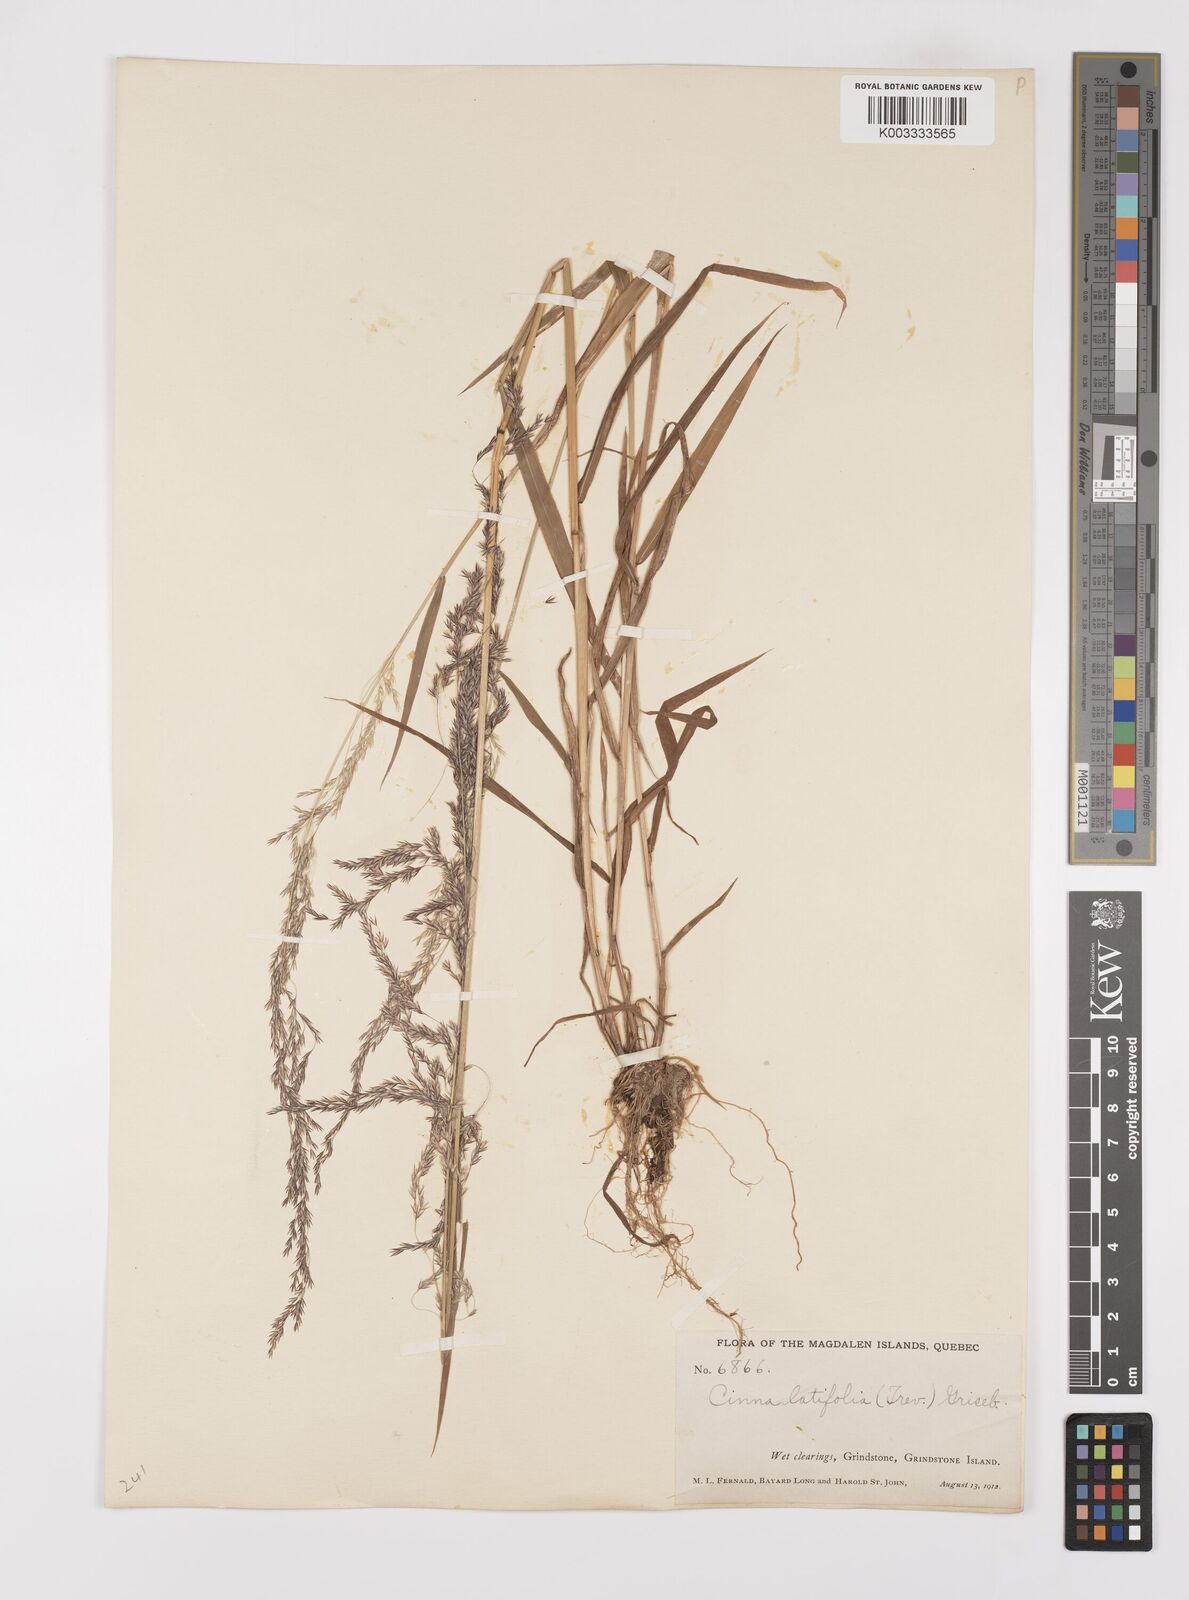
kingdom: Plantae
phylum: Tracheophyta
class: Liliopsida
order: Poales
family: Poaceae
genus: Cinna
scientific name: Cinna latifolia
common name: Drooping woodreed
